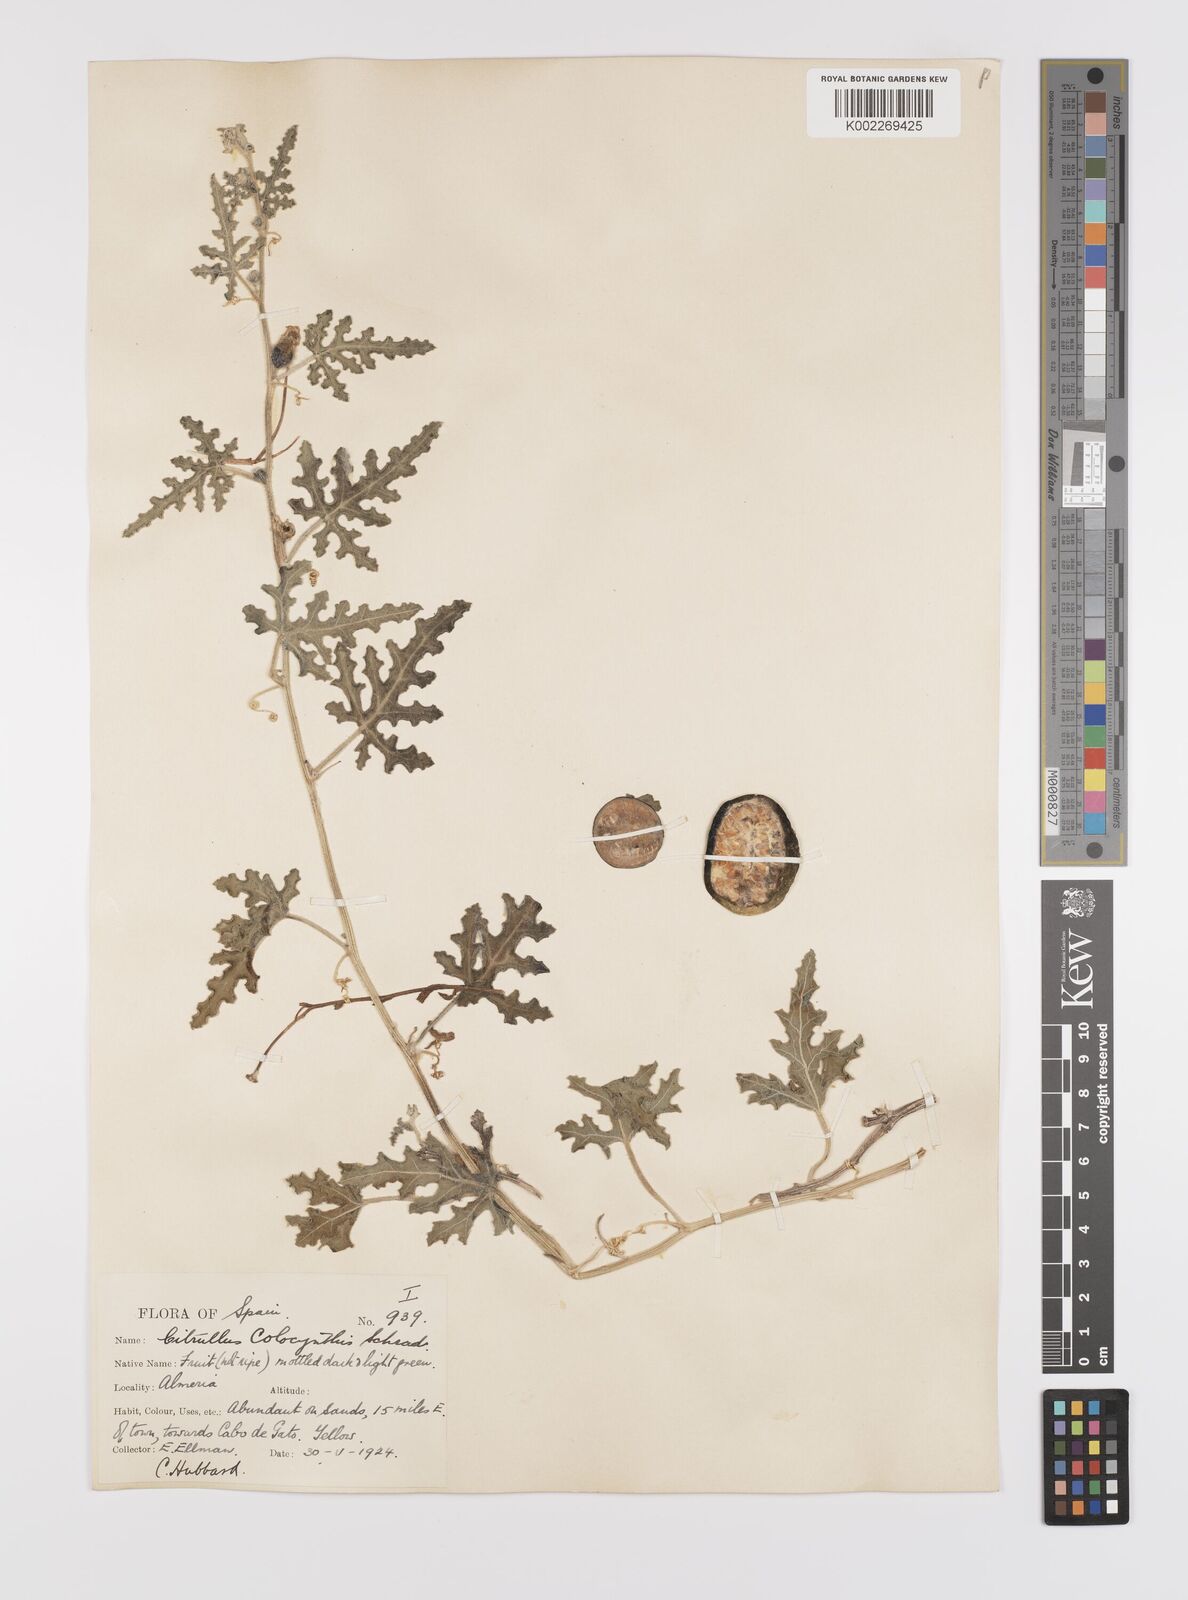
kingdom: Plantae
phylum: Tracheophyta
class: Magnoliopsida
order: Cucurbitales
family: Cucurbitaceae
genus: Citrullus
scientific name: Citrullus colocynthis
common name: Colocynth
